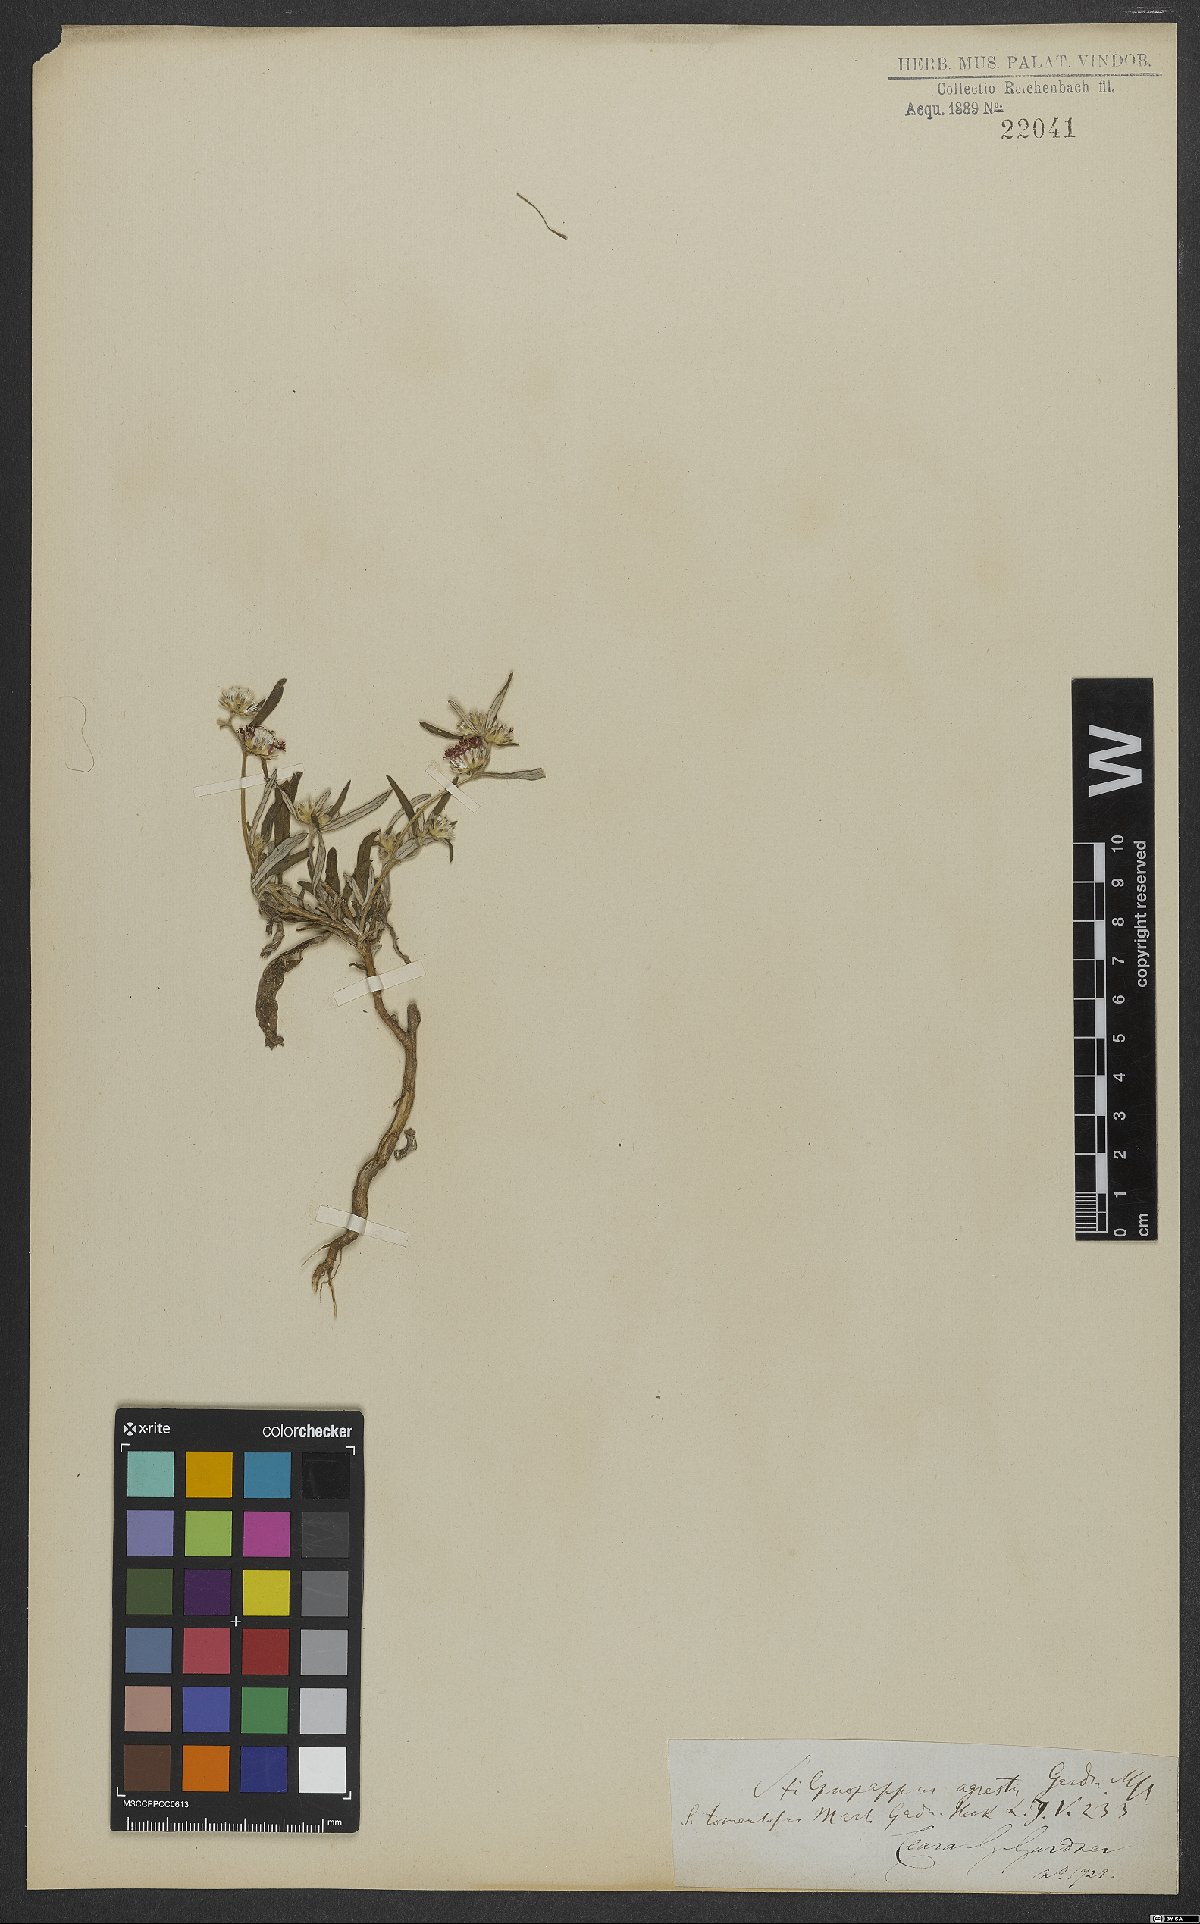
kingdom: Plantae
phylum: Tracheophyta
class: Magnoliopsida
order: Asterales
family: Asteraceae
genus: Stilpnopappus
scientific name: Stilpnopappus tomentosus
